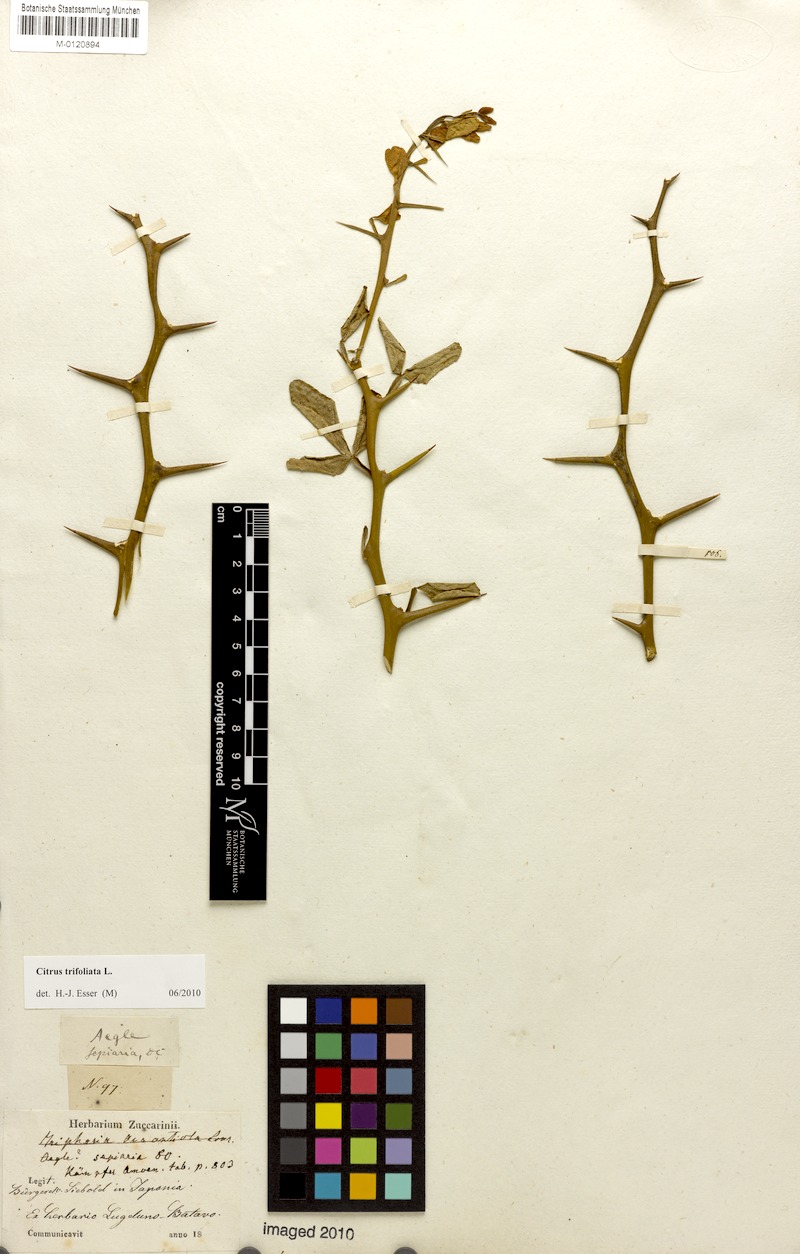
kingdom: Plantae
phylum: Tracheophyta
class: Magnoliopsida
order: Sapindales
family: Rutaceae
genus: Citrus
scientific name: Citrus trifoliata
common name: Japanese bitter-orange
